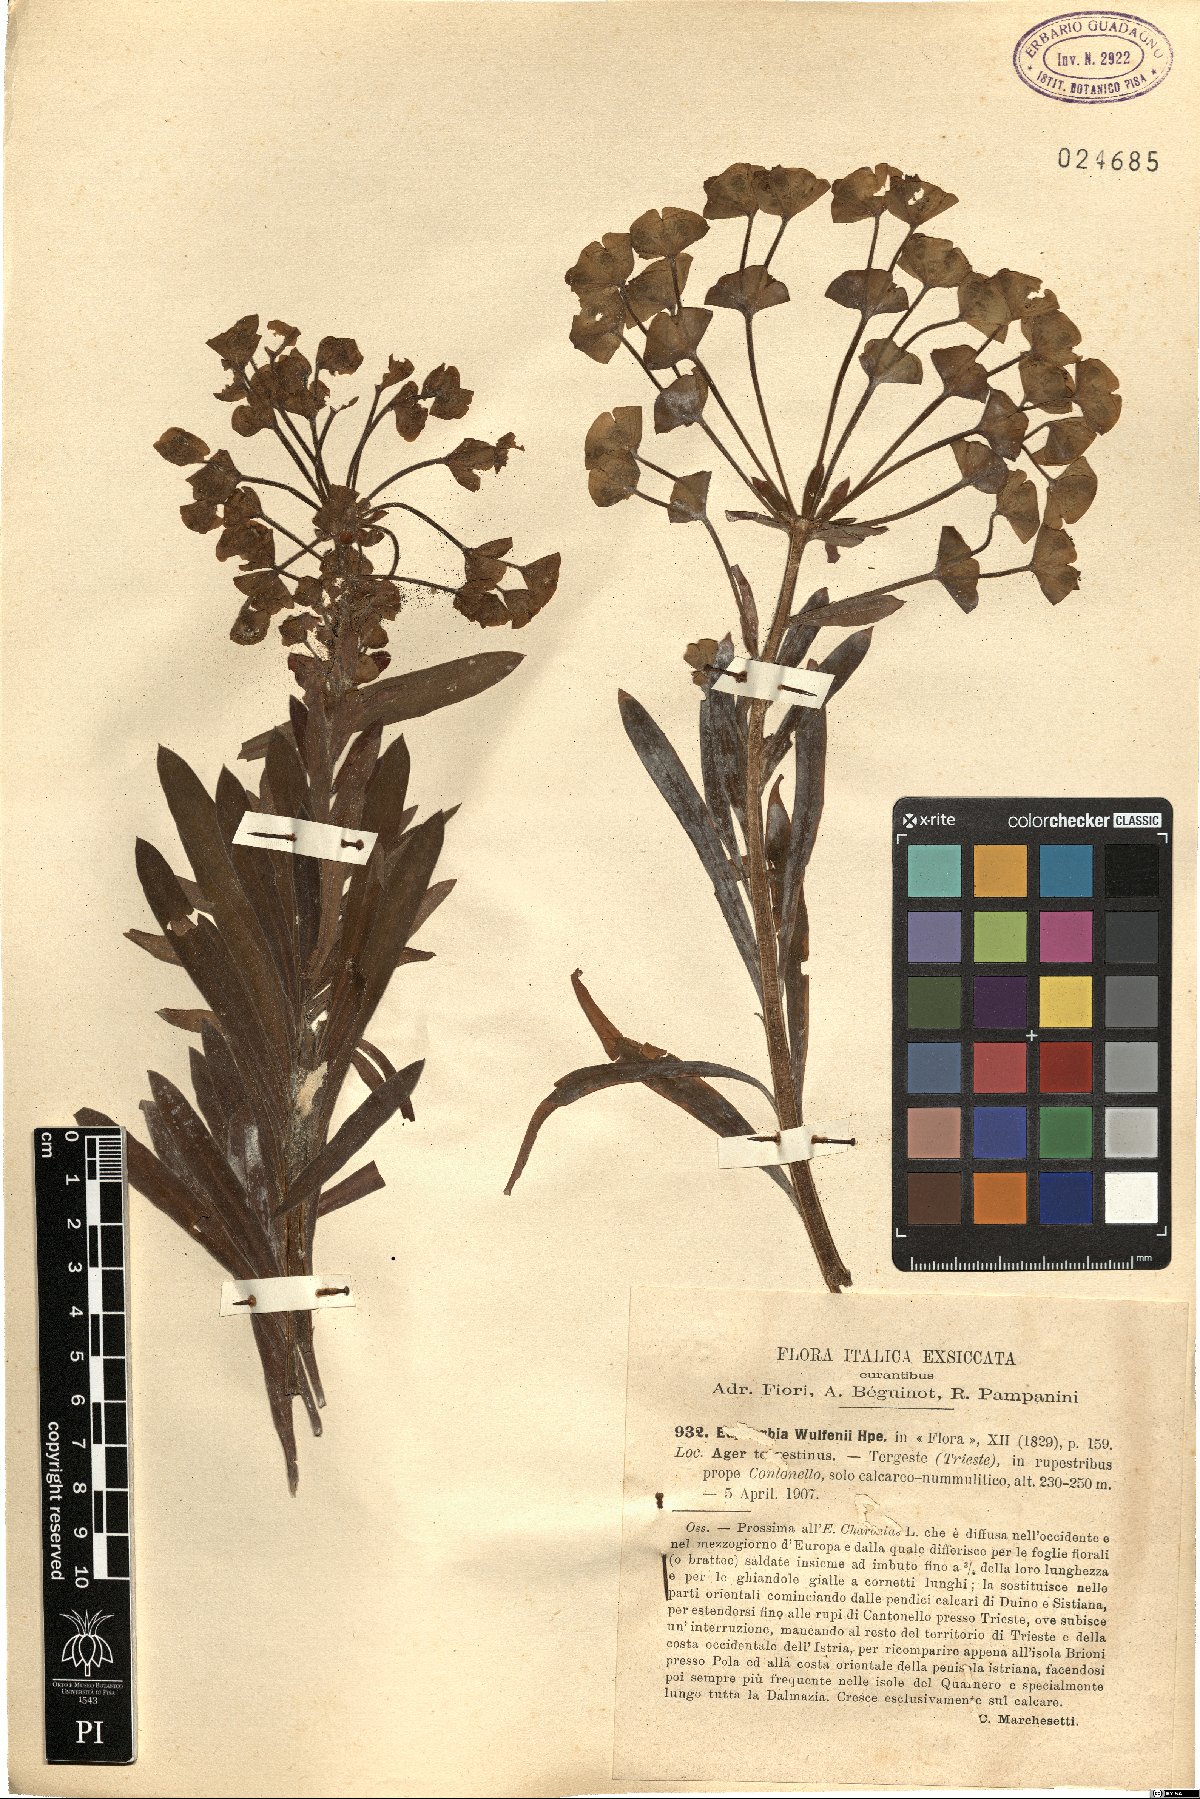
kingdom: Plantae
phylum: Tracheophyta
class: Magnoliopsida
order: Malpighiales
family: Euphorbiaceae
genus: Euphorbia
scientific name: Euphorbia characias
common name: Mediterranean spurge
